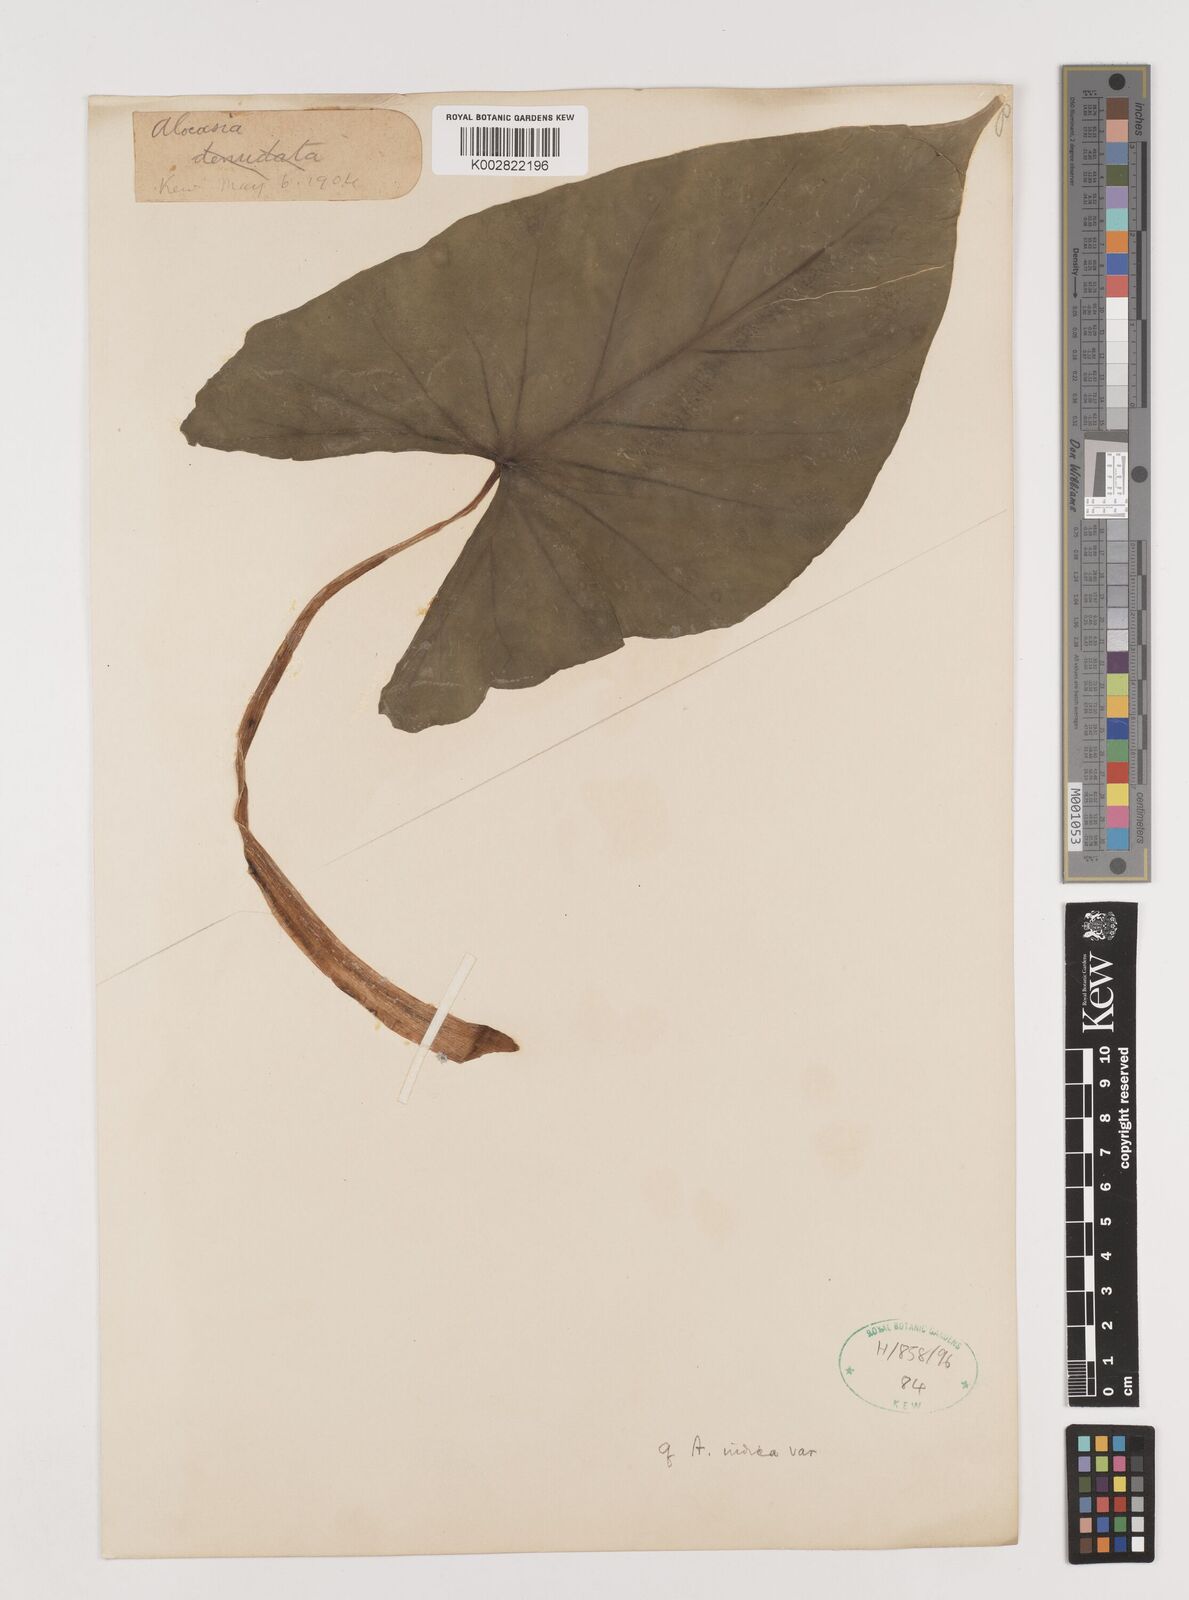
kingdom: Plantae
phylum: Tracheophyta
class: Liliopsida
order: Alismatales
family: Araceae
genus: Alocasia
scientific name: Alocasia macrorrhizos
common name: Giant taro
